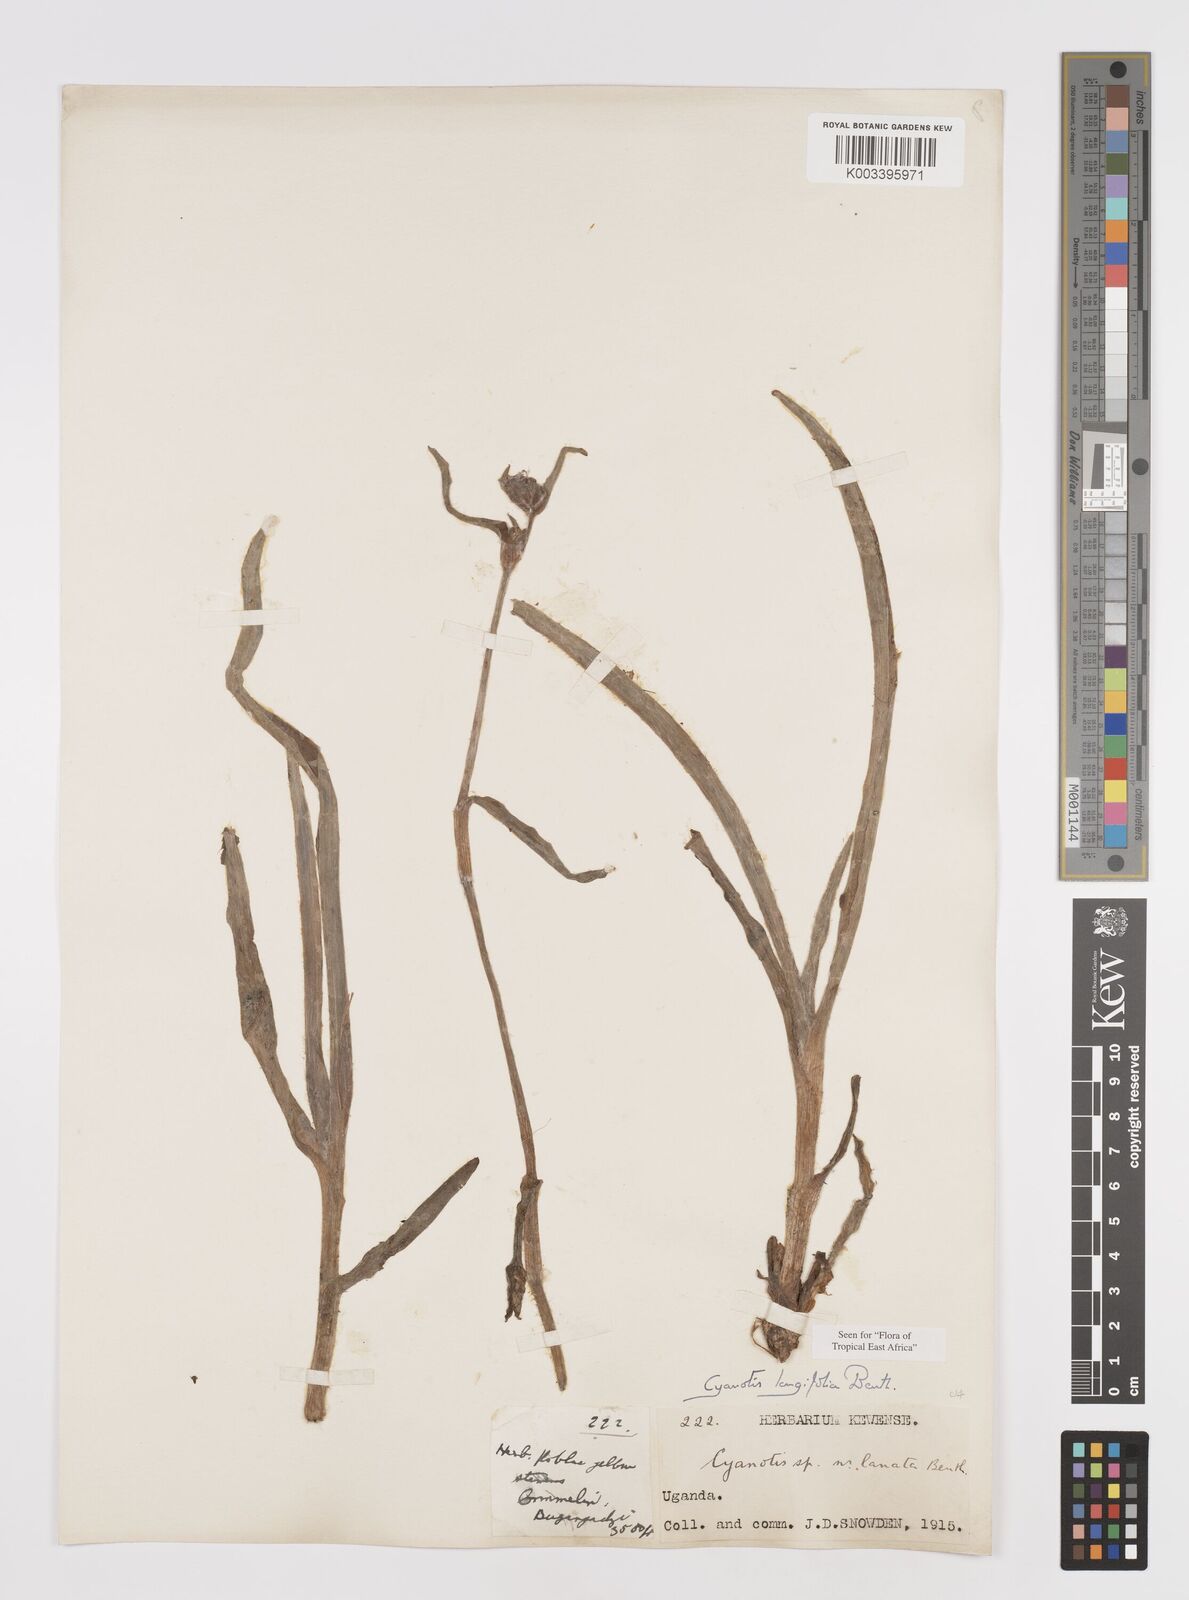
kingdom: Plantae
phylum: Tracheophyta
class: Liliopsida
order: Commelinales
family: Commelinaceae
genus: Cyanotis
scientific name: Cyanotis longifolia
